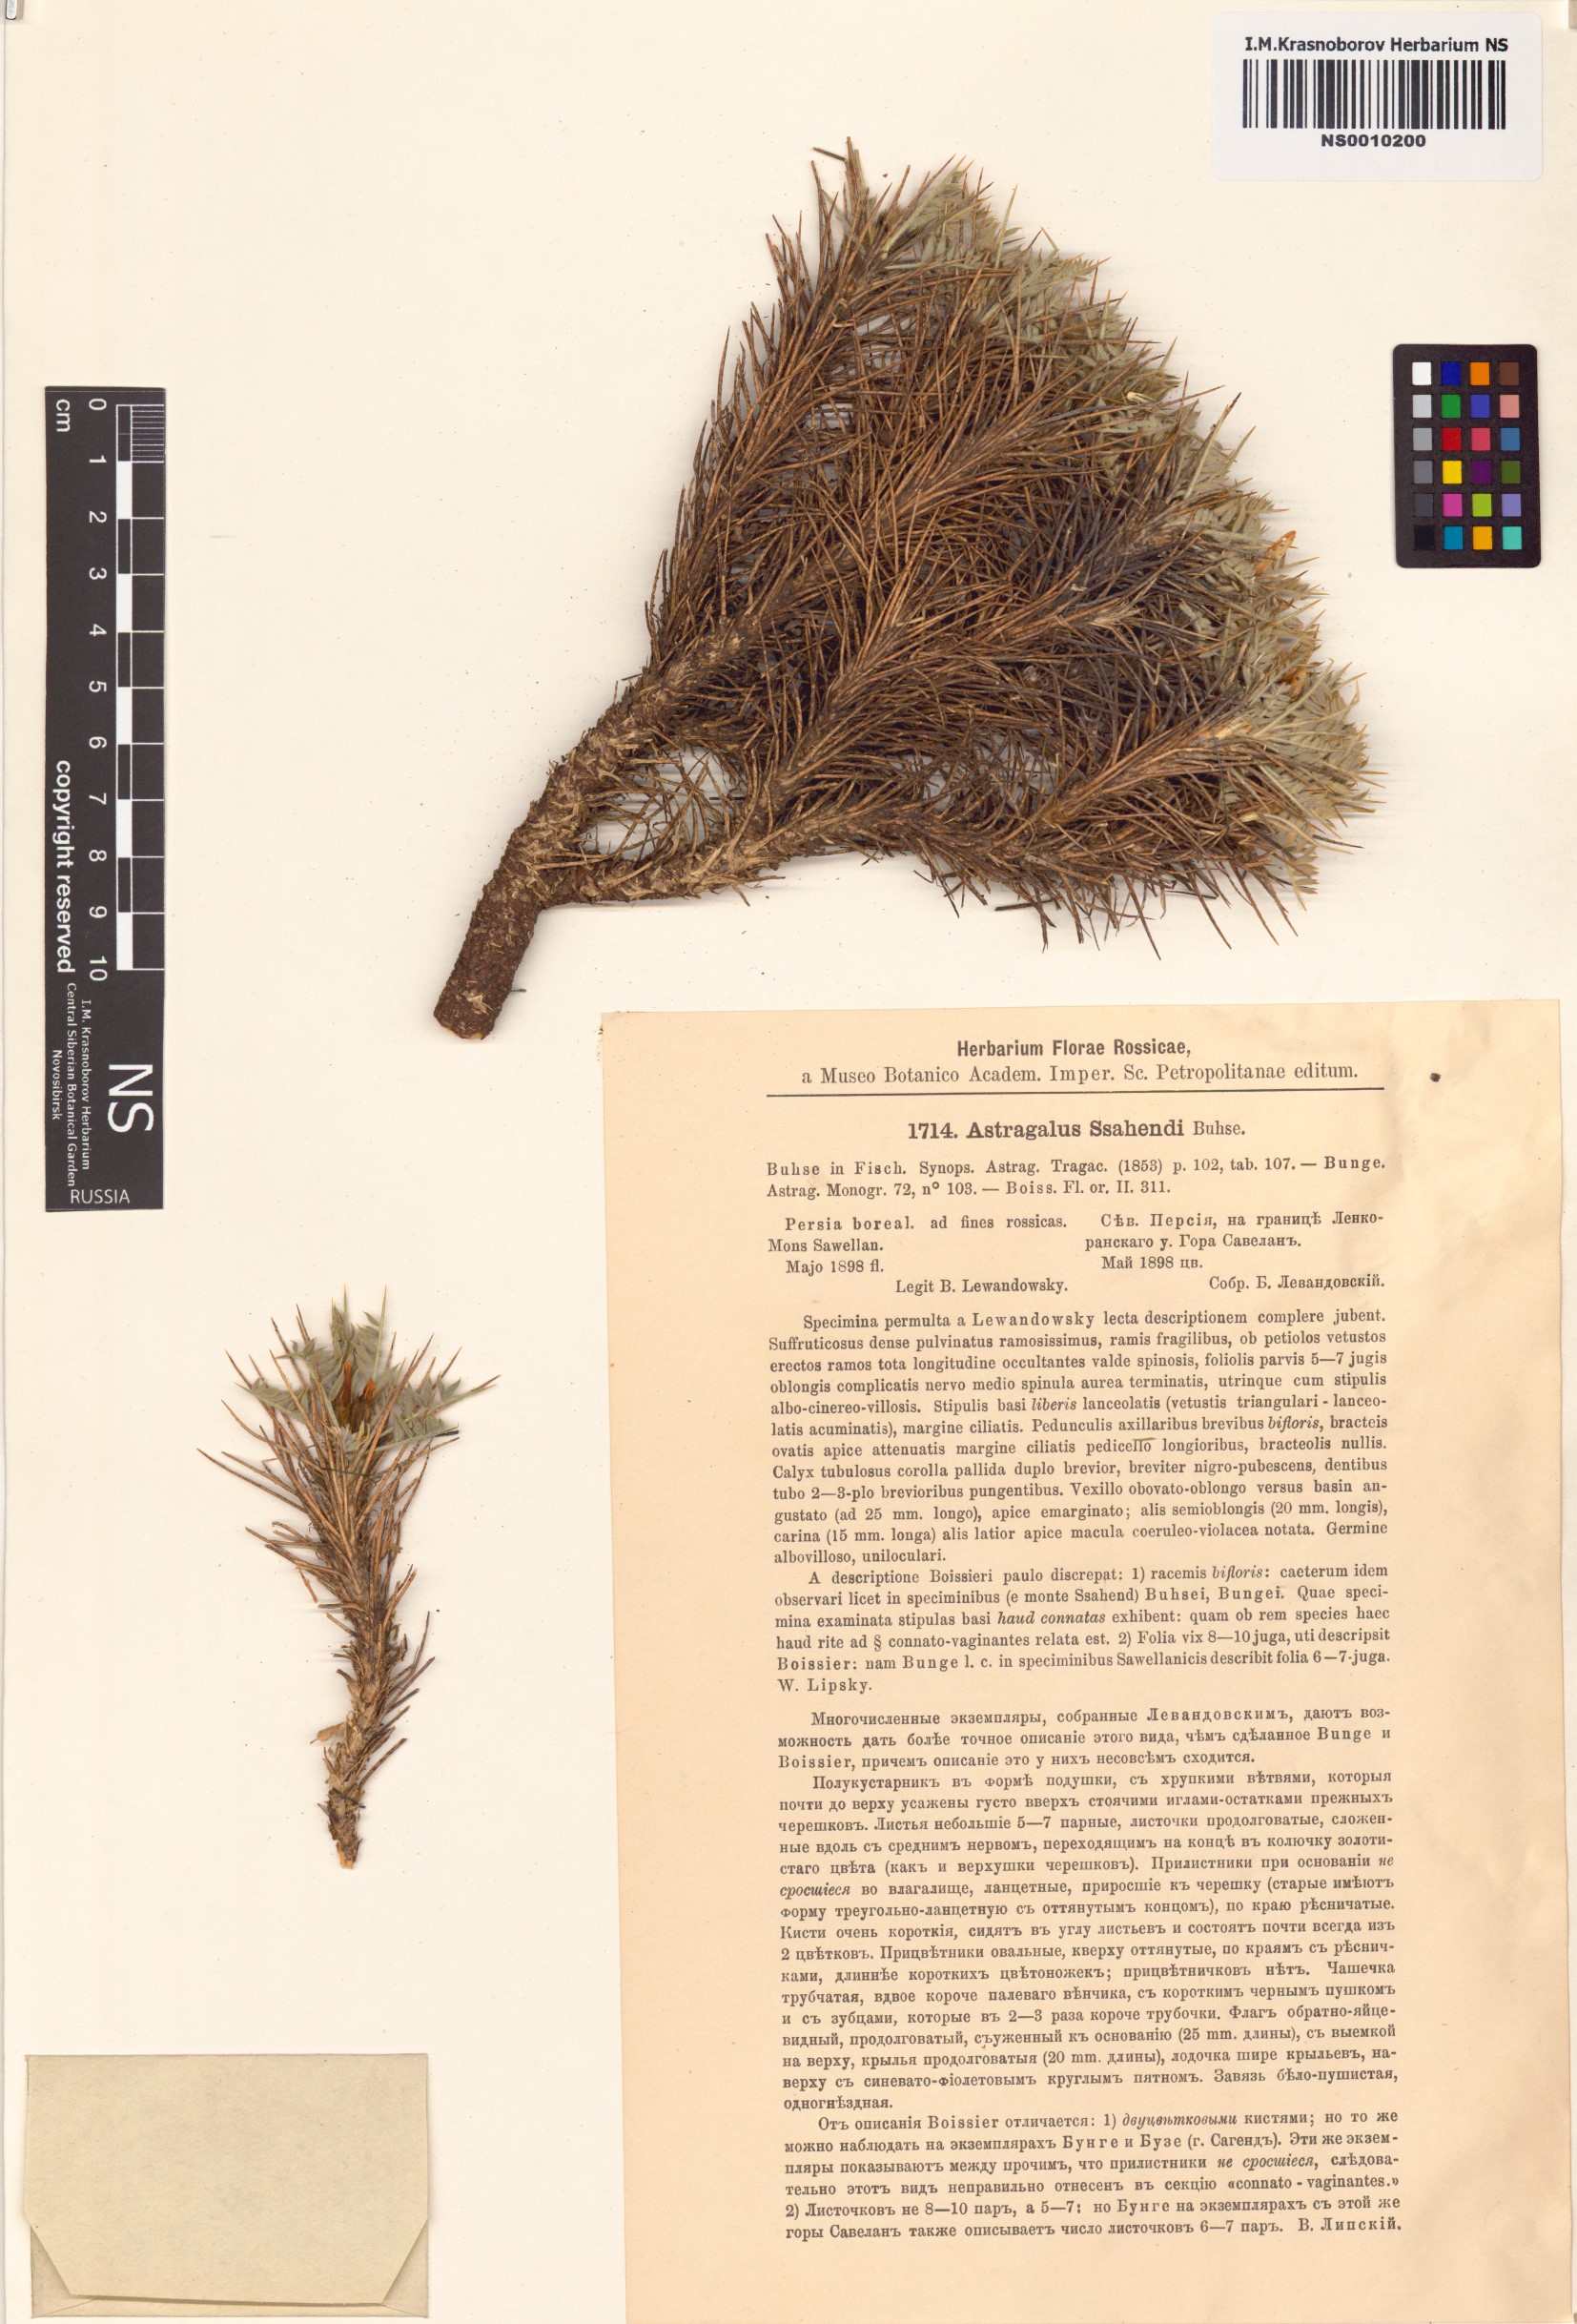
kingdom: Plantae
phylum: Tracheophyta
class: Magnoliopsida
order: Fabales
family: Fabaceae
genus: Astragalus
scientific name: Astragalus sahendi
